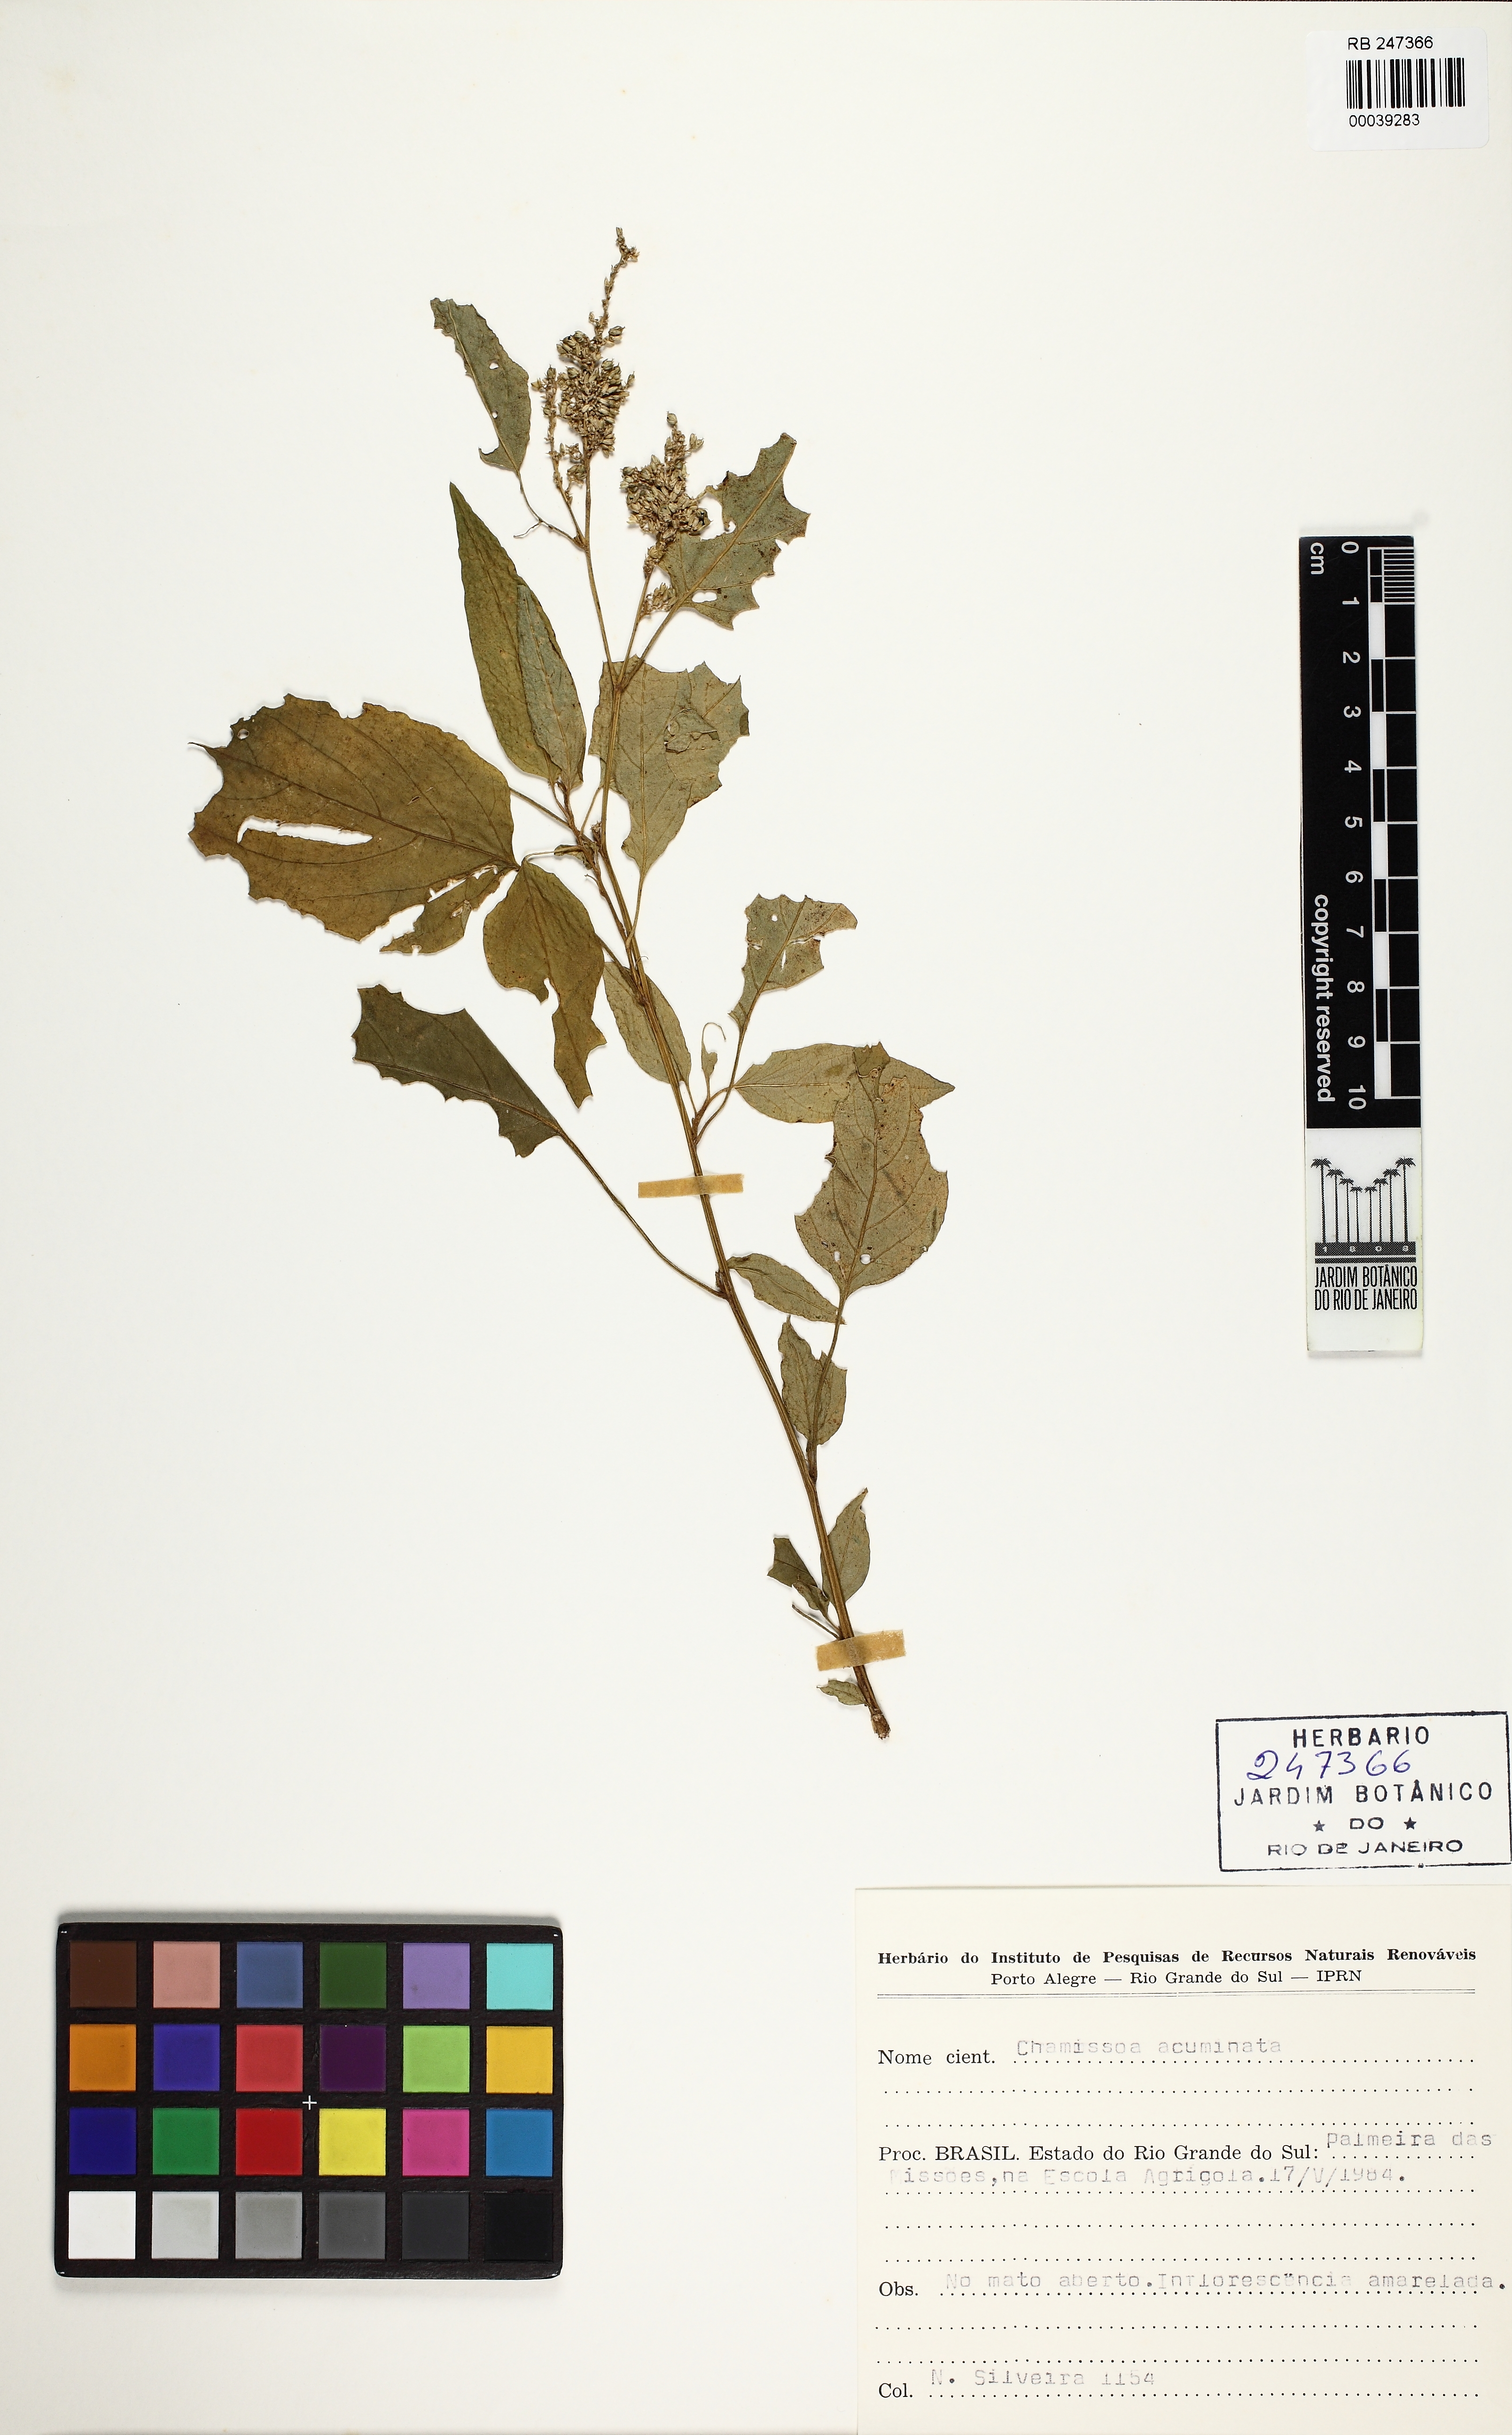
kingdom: Plantae
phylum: Tracheophyta
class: Magnoliopsida
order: Caryophyllales
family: Amaranthaceae
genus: Chamissoa
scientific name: Chamissoa acuminata
